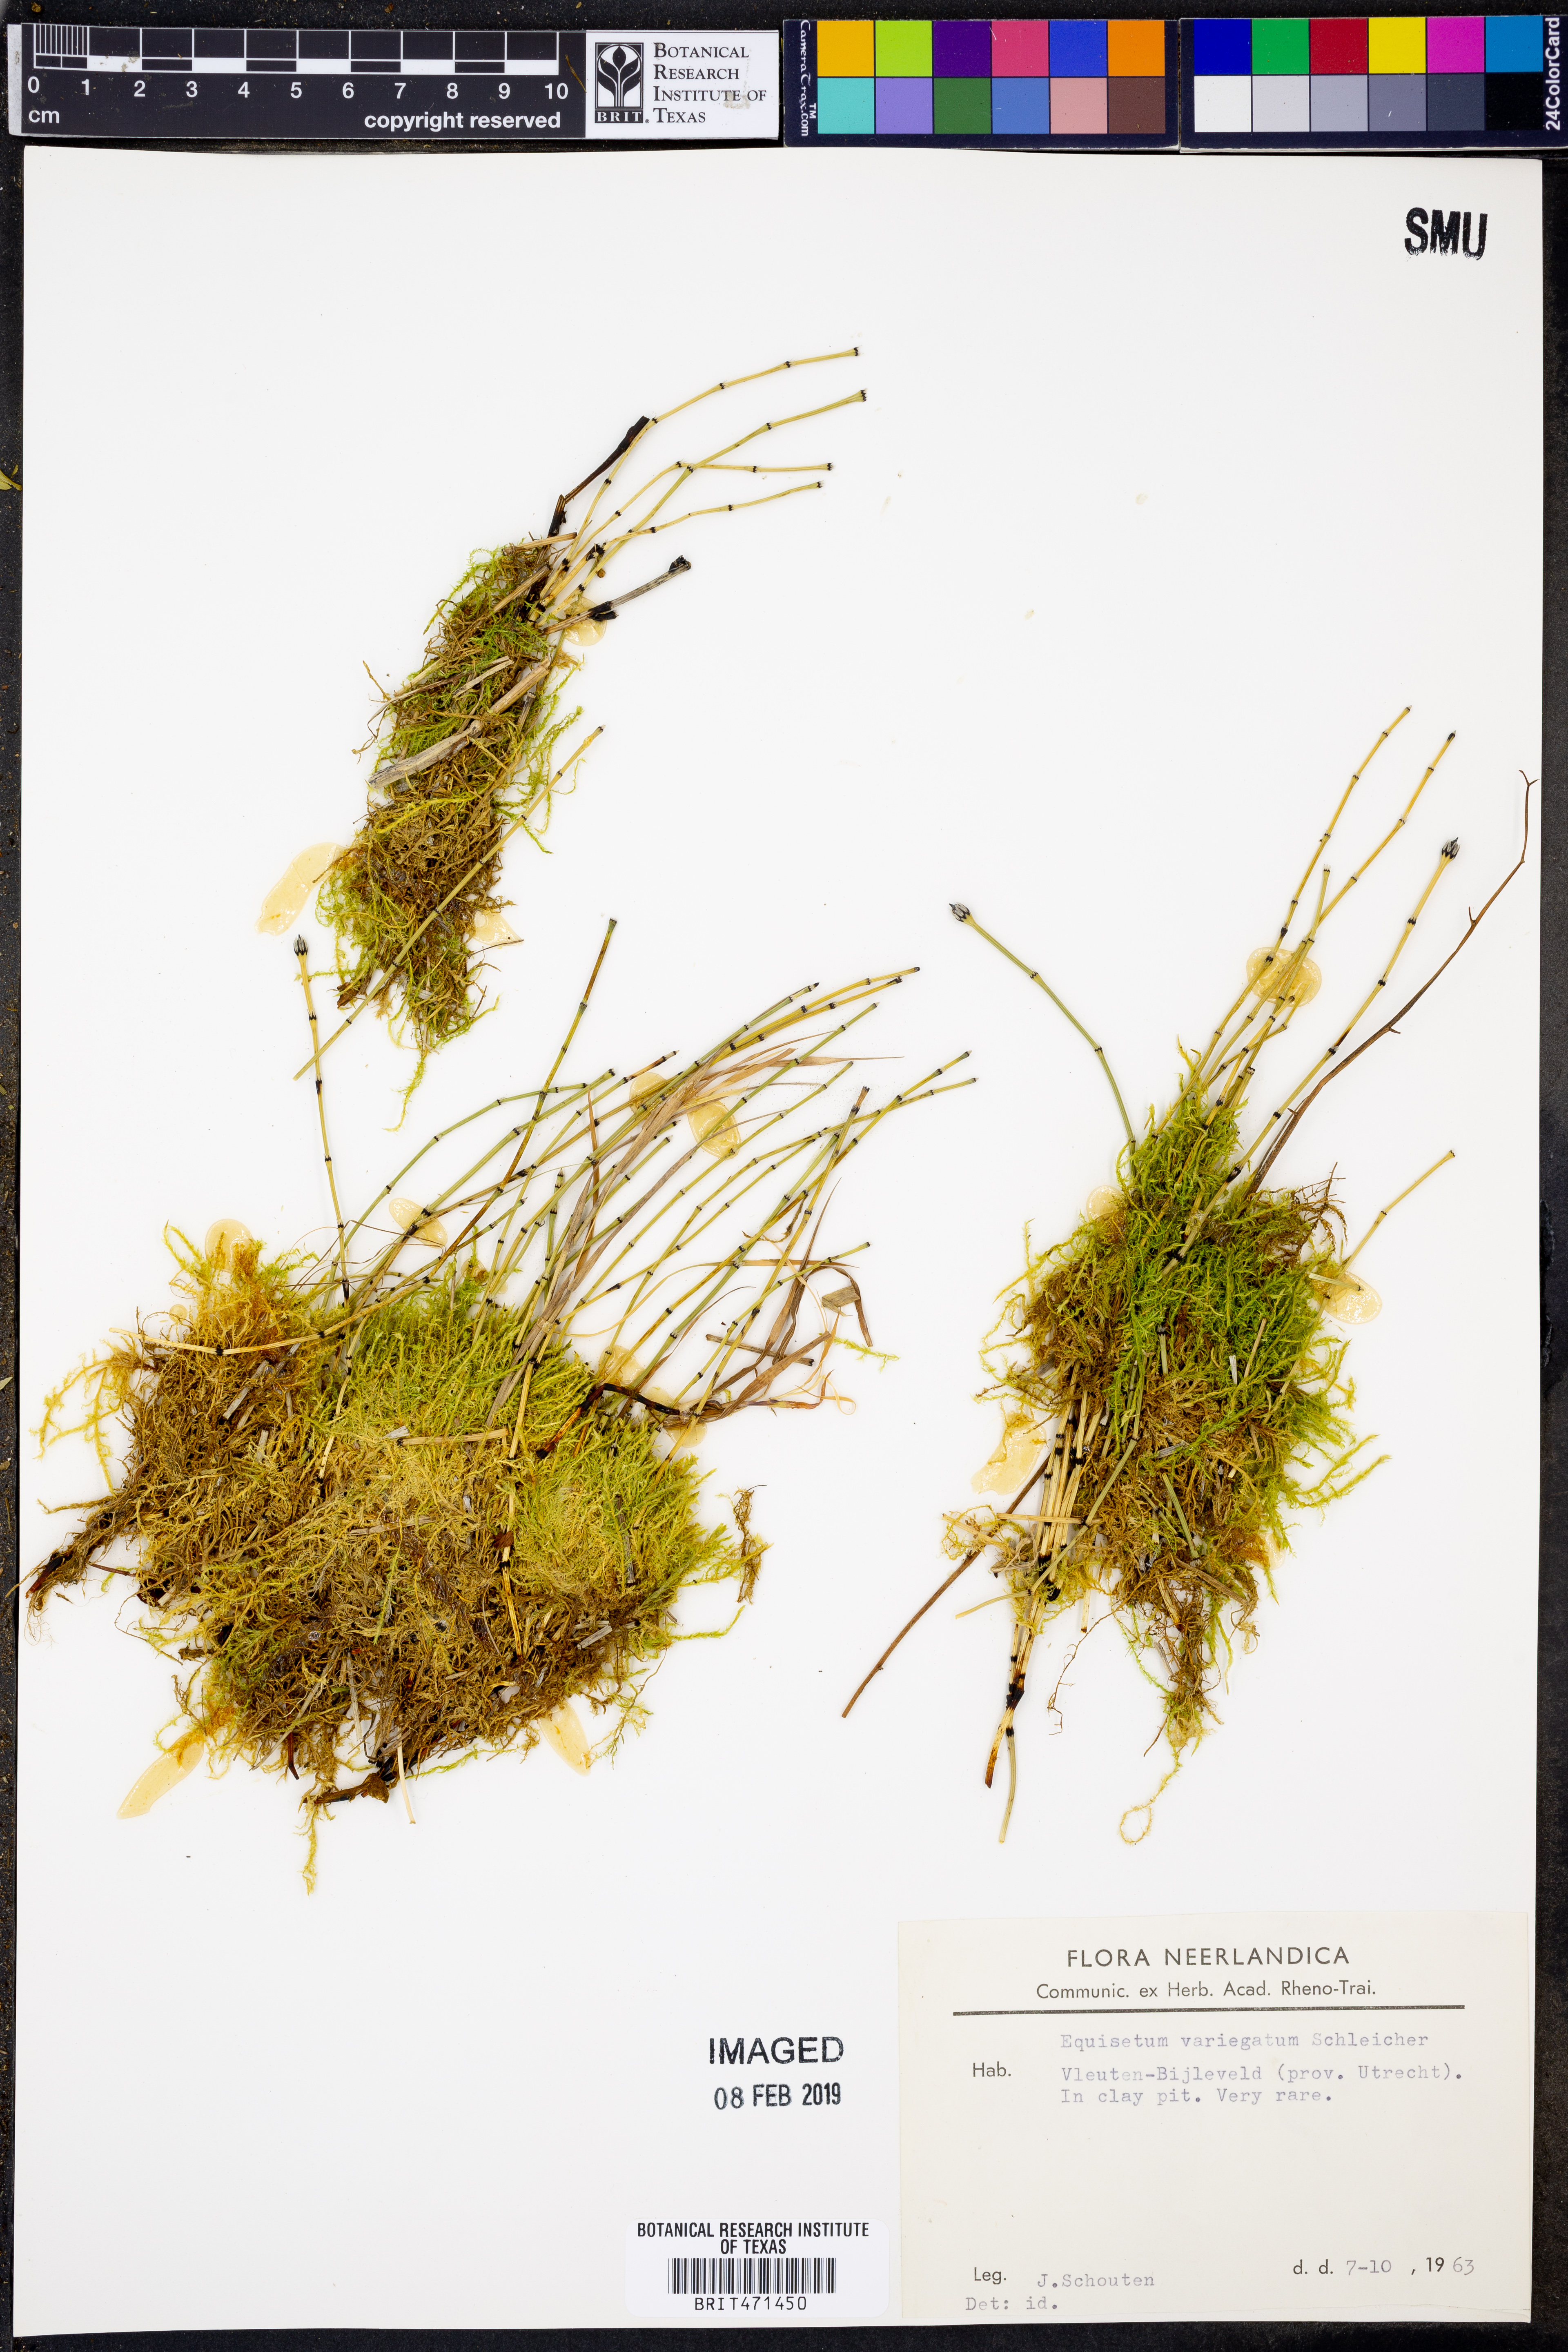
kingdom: Plantae
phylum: Tracheophyta
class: Polypodiopsida
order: Equisetales
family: Equisetaceae
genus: Equisetum
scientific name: Equisetum variegatum
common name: Variegated horsetail
